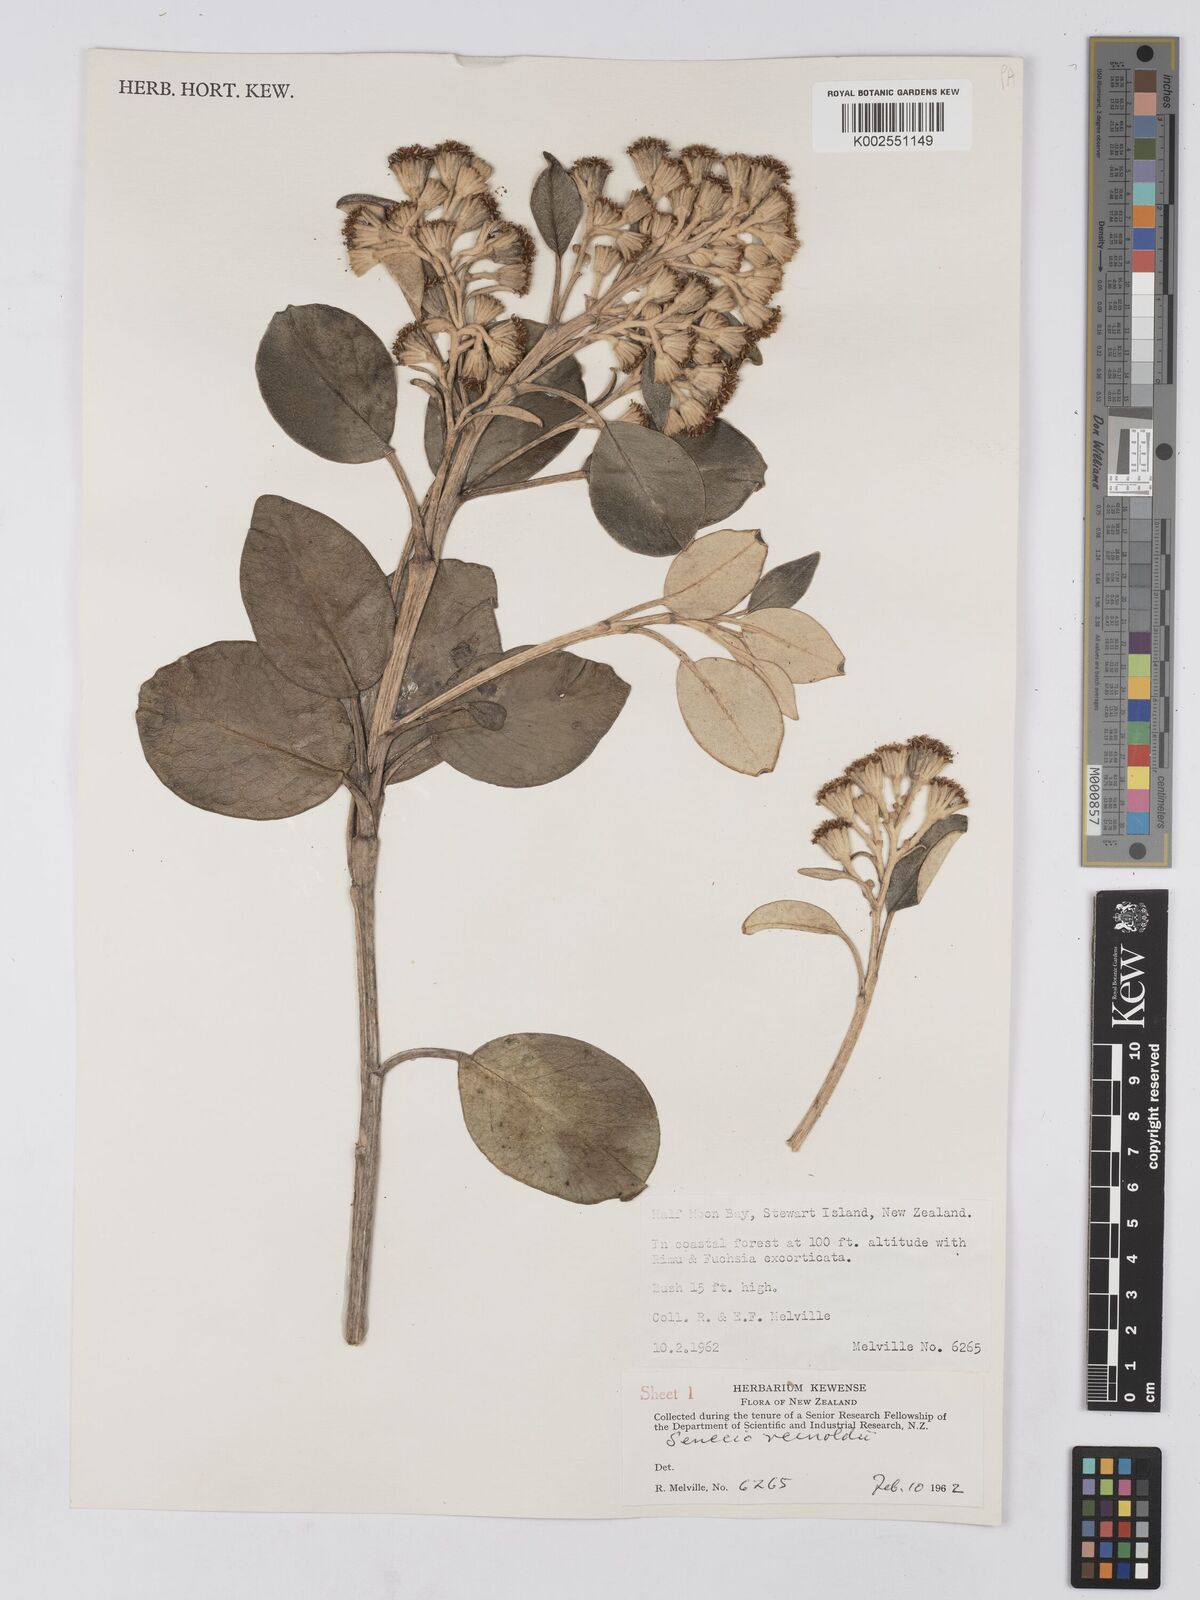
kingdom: Plantae
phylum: Tracheophyta
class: Magnoliopsida
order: Asterales
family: Asteraceae
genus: Brachyglottis
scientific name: Brachyglottis rotundifolia
